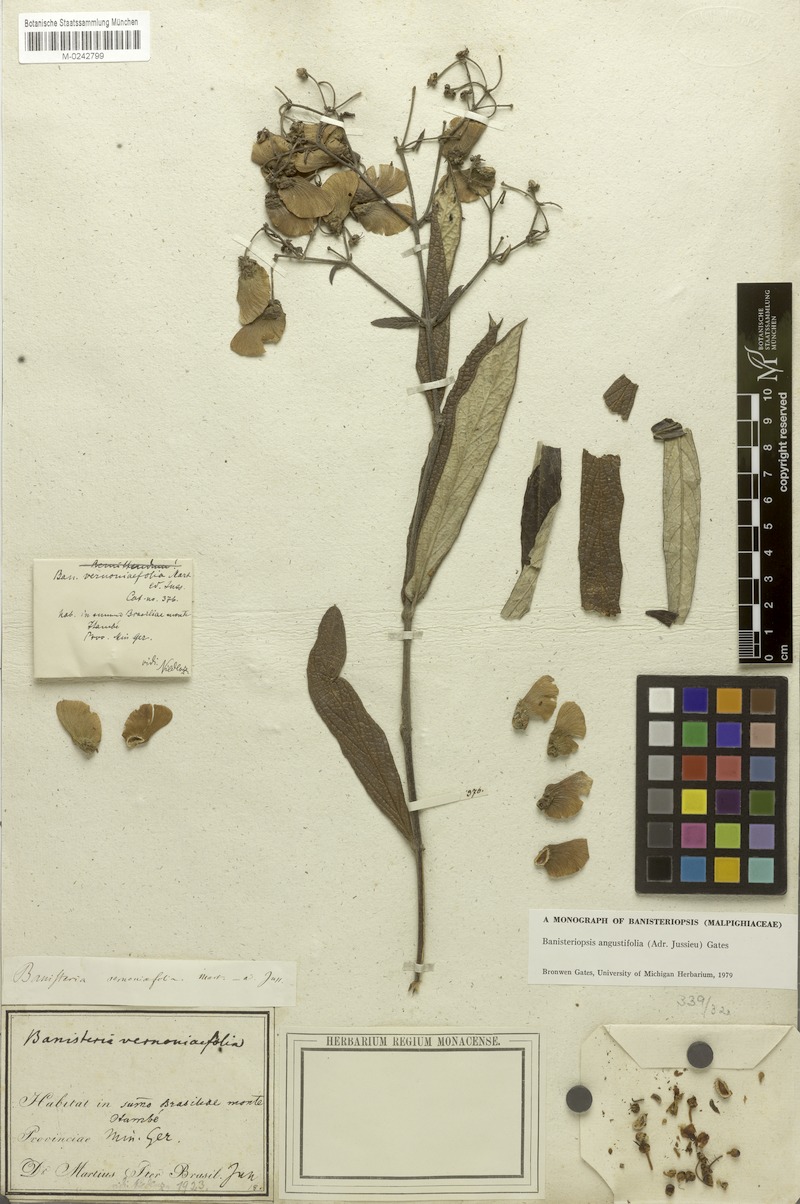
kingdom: Plantae
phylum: Tracheophyta
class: Magnoliopsida
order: Malpighiales
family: Malpighiaceae
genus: Banisteriopsis
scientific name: Banisteriopsis vernoniifolia
